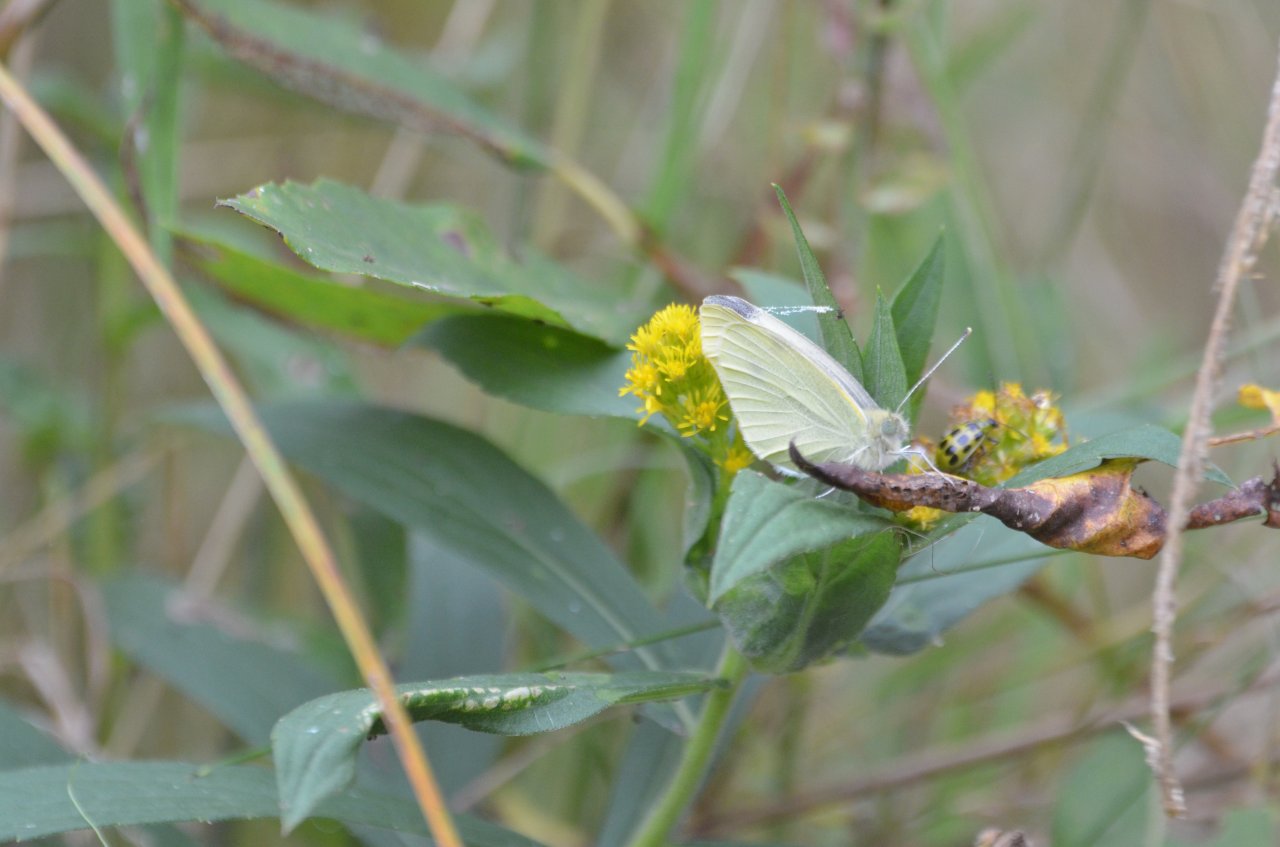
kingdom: Animalia
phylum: Arthropoda
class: Insecta
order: Lepidoptera
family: Pieridae
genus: Pieris
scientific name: Pieris rapae
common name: Cabbage White
